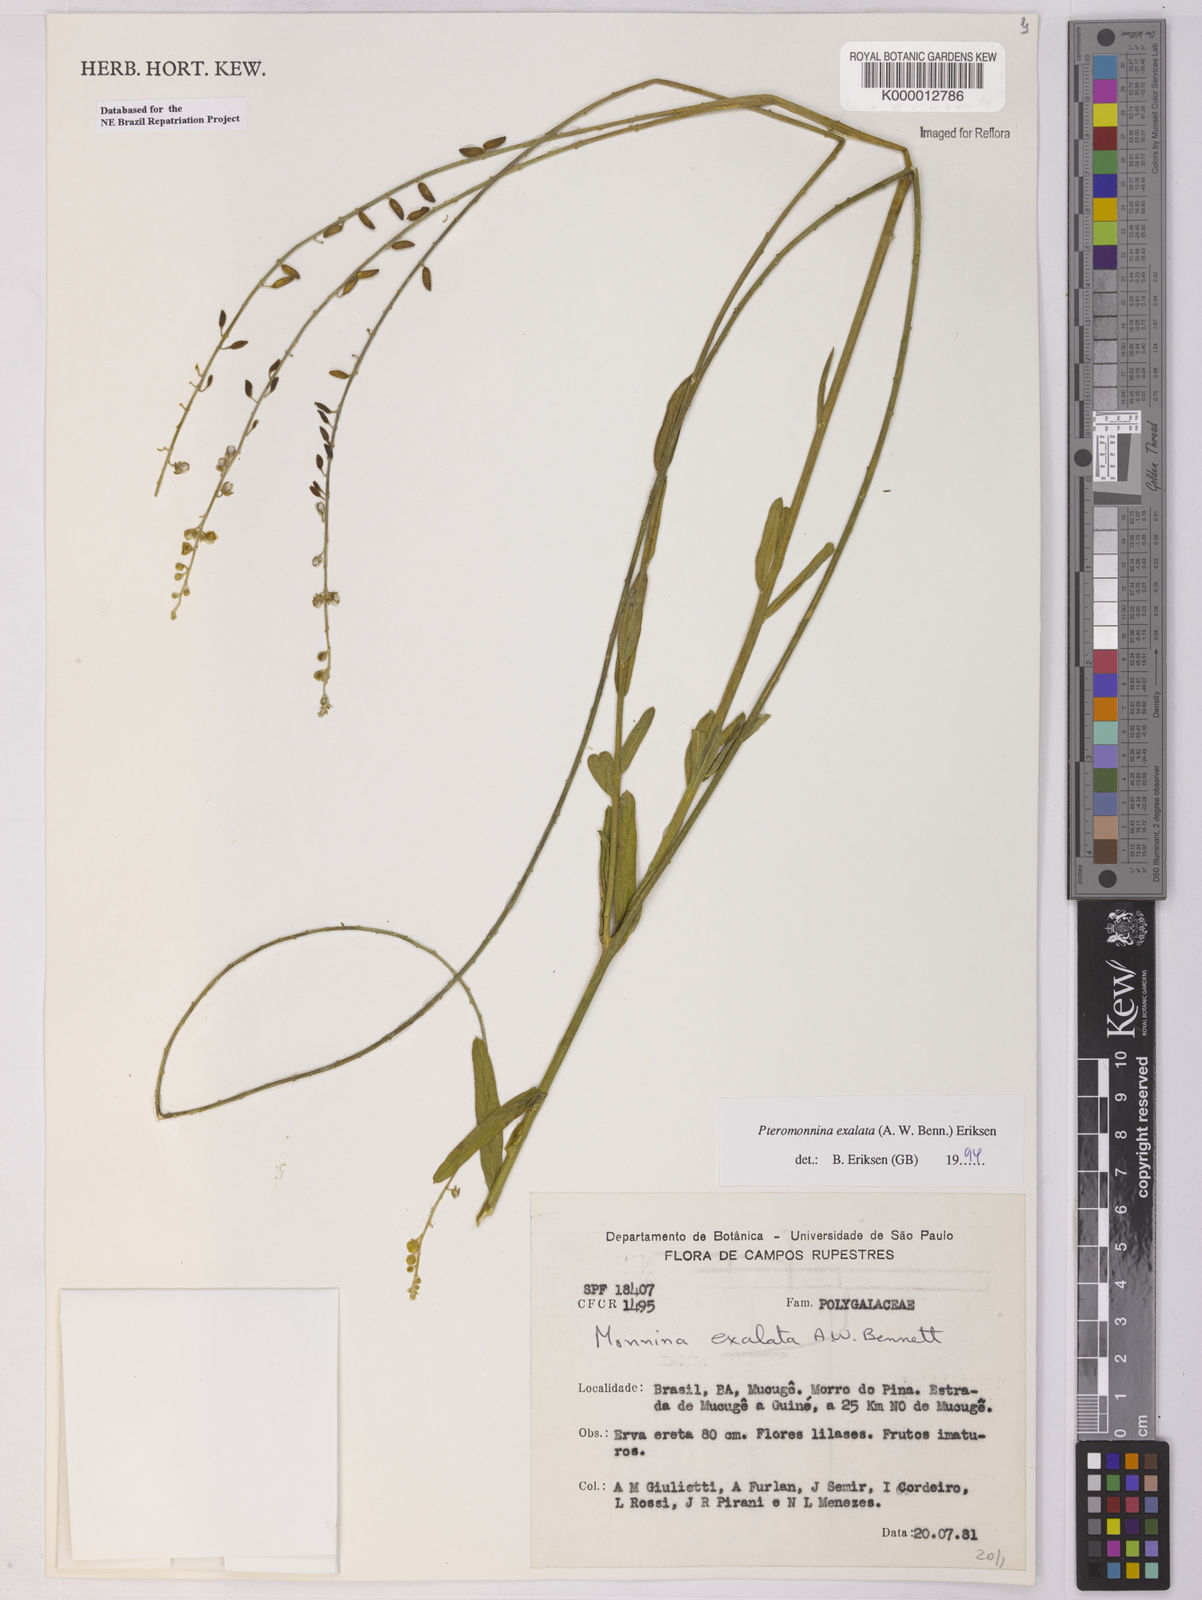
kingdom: Plantae
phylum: Tracheophyta
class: Magnoliopsida
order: Fabales
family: Polygalaceae
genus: Monnina
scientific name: Monnina exalata
